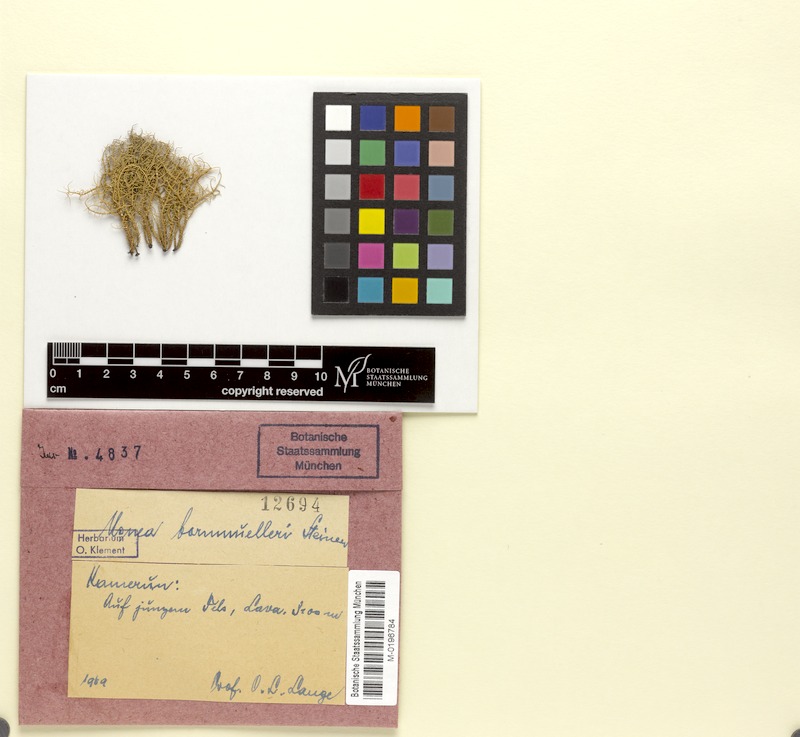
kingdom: Fungi
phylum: Ascomycota
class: Lecanoromycetes
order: Lecanorales
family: Parmeliaceae
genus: Usnea
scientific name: Usnea bornmuelleri
